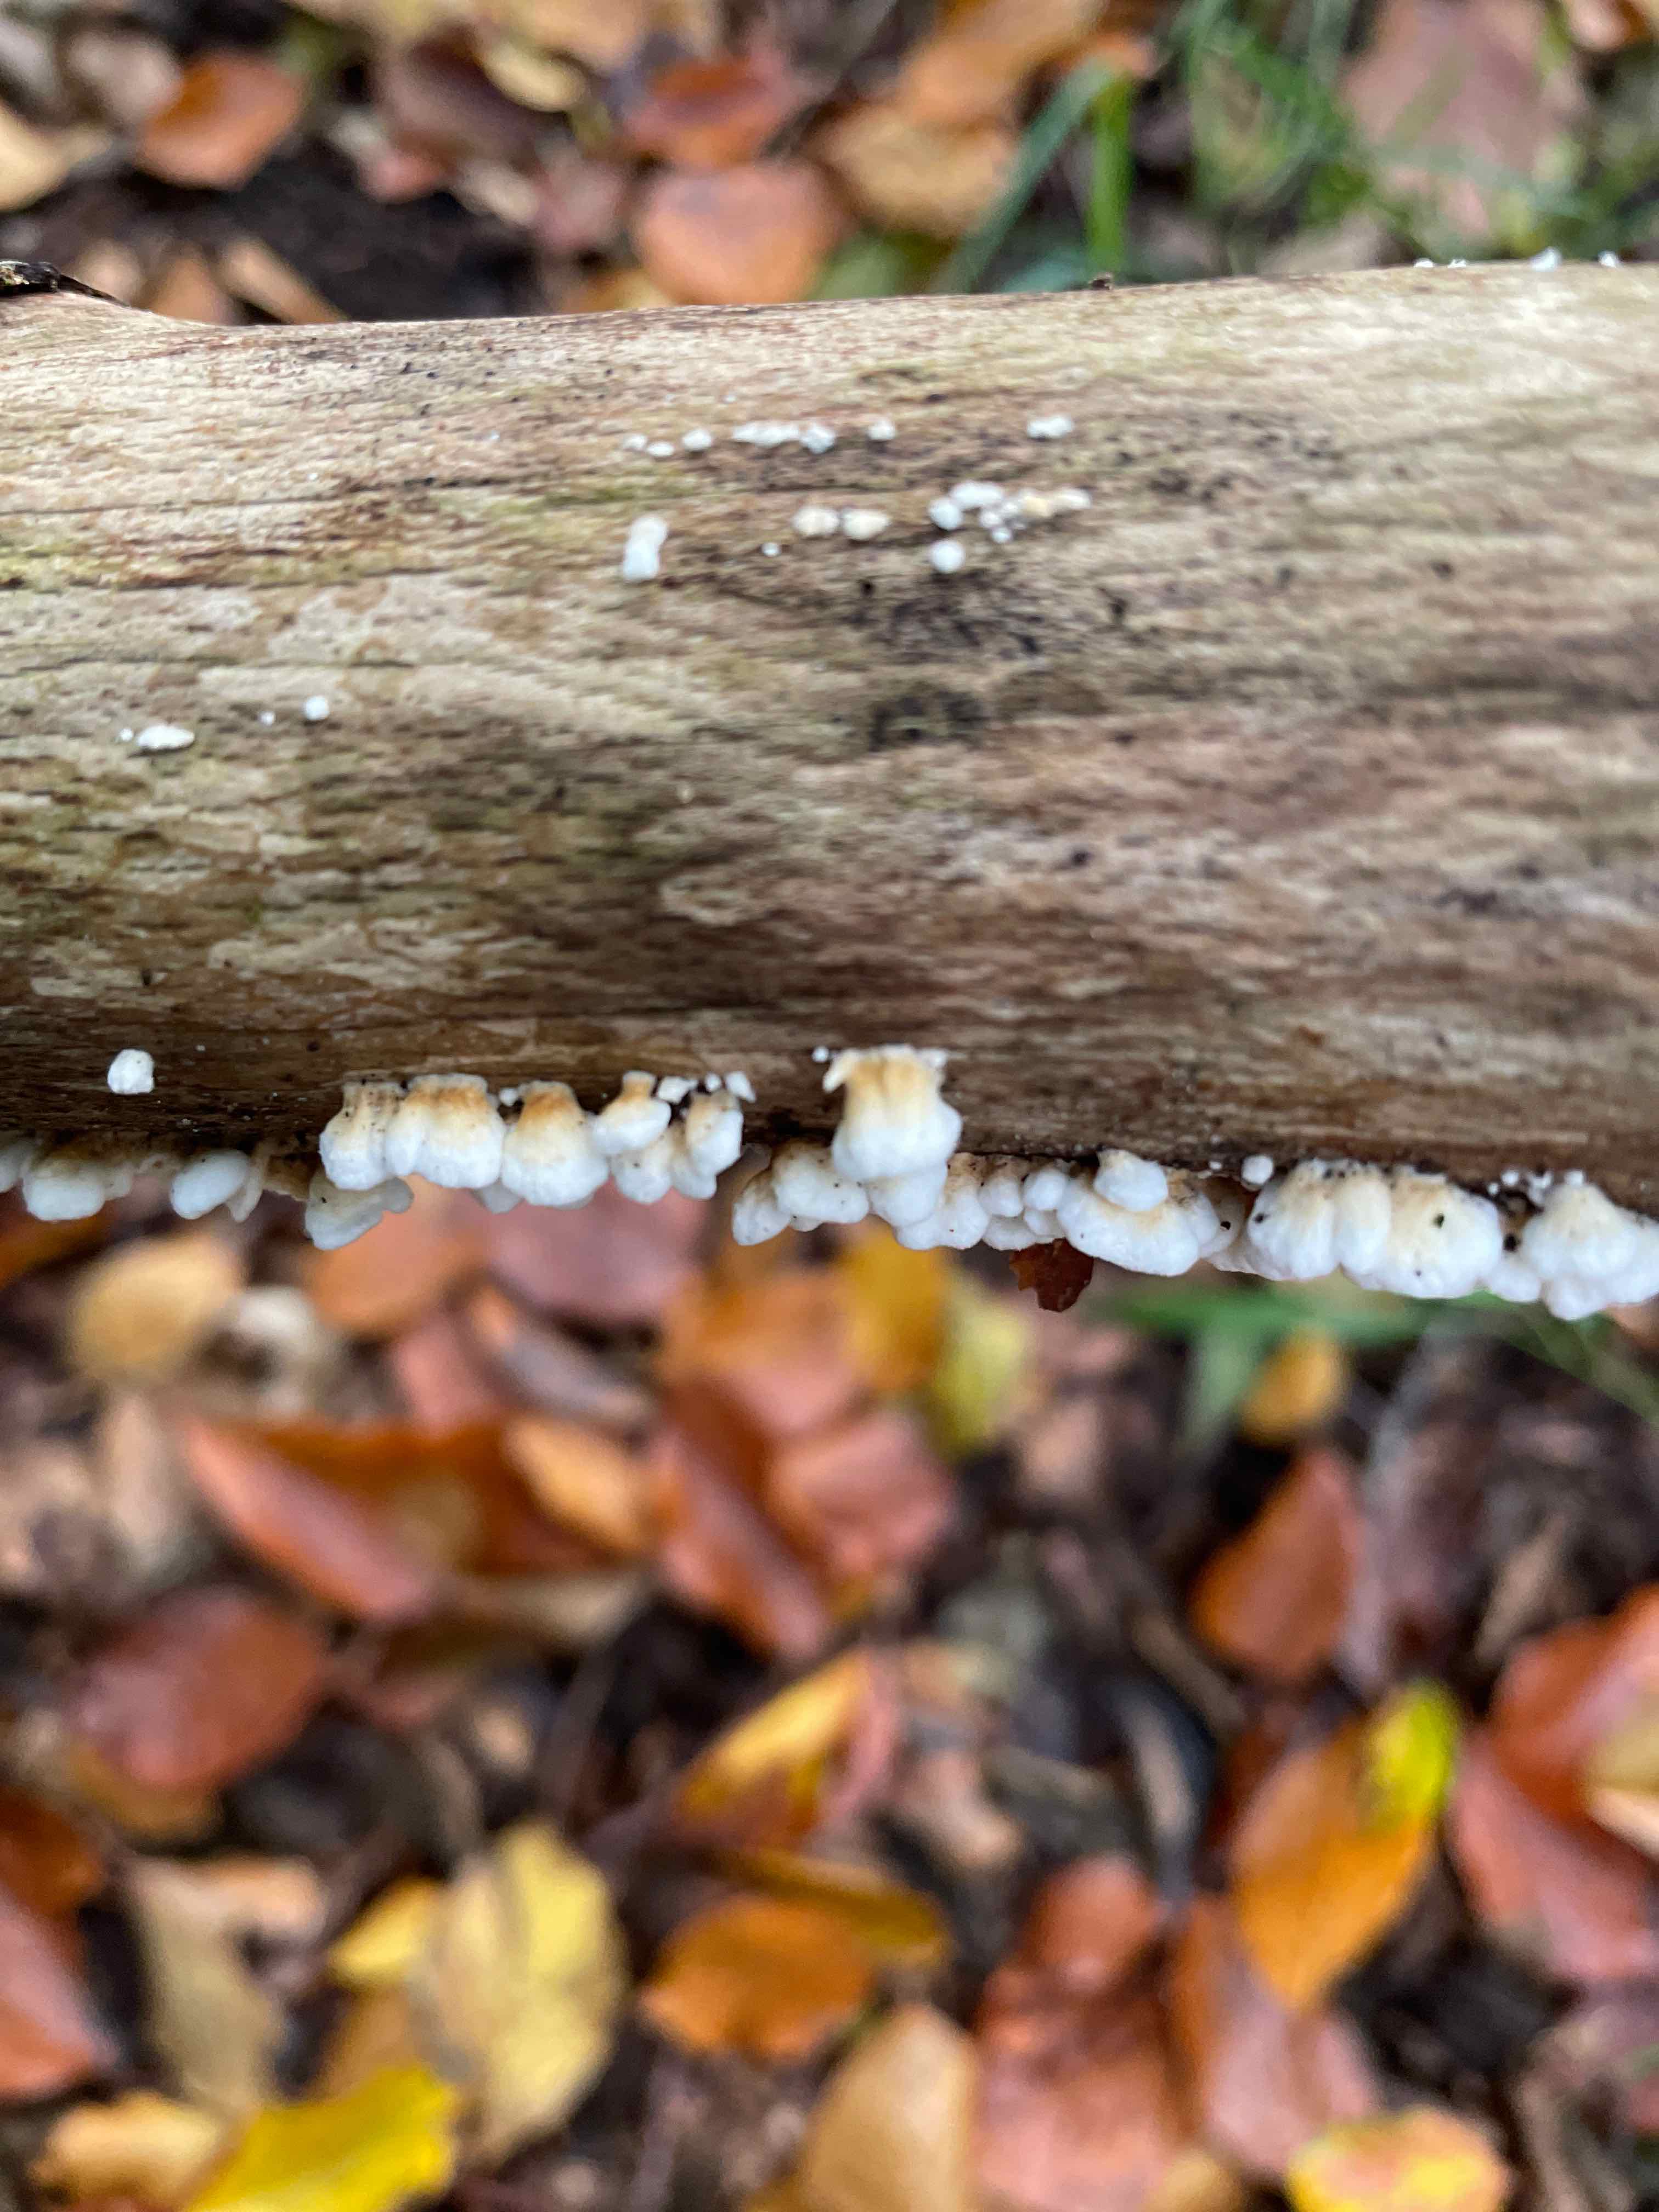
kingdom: Fungi
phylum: Basidiomycota
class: Agaricomycetes
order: Amylocorticiales
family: Amylocorticiaceae
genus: Plicaturopsis
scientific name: Plicaturopsis crispa
